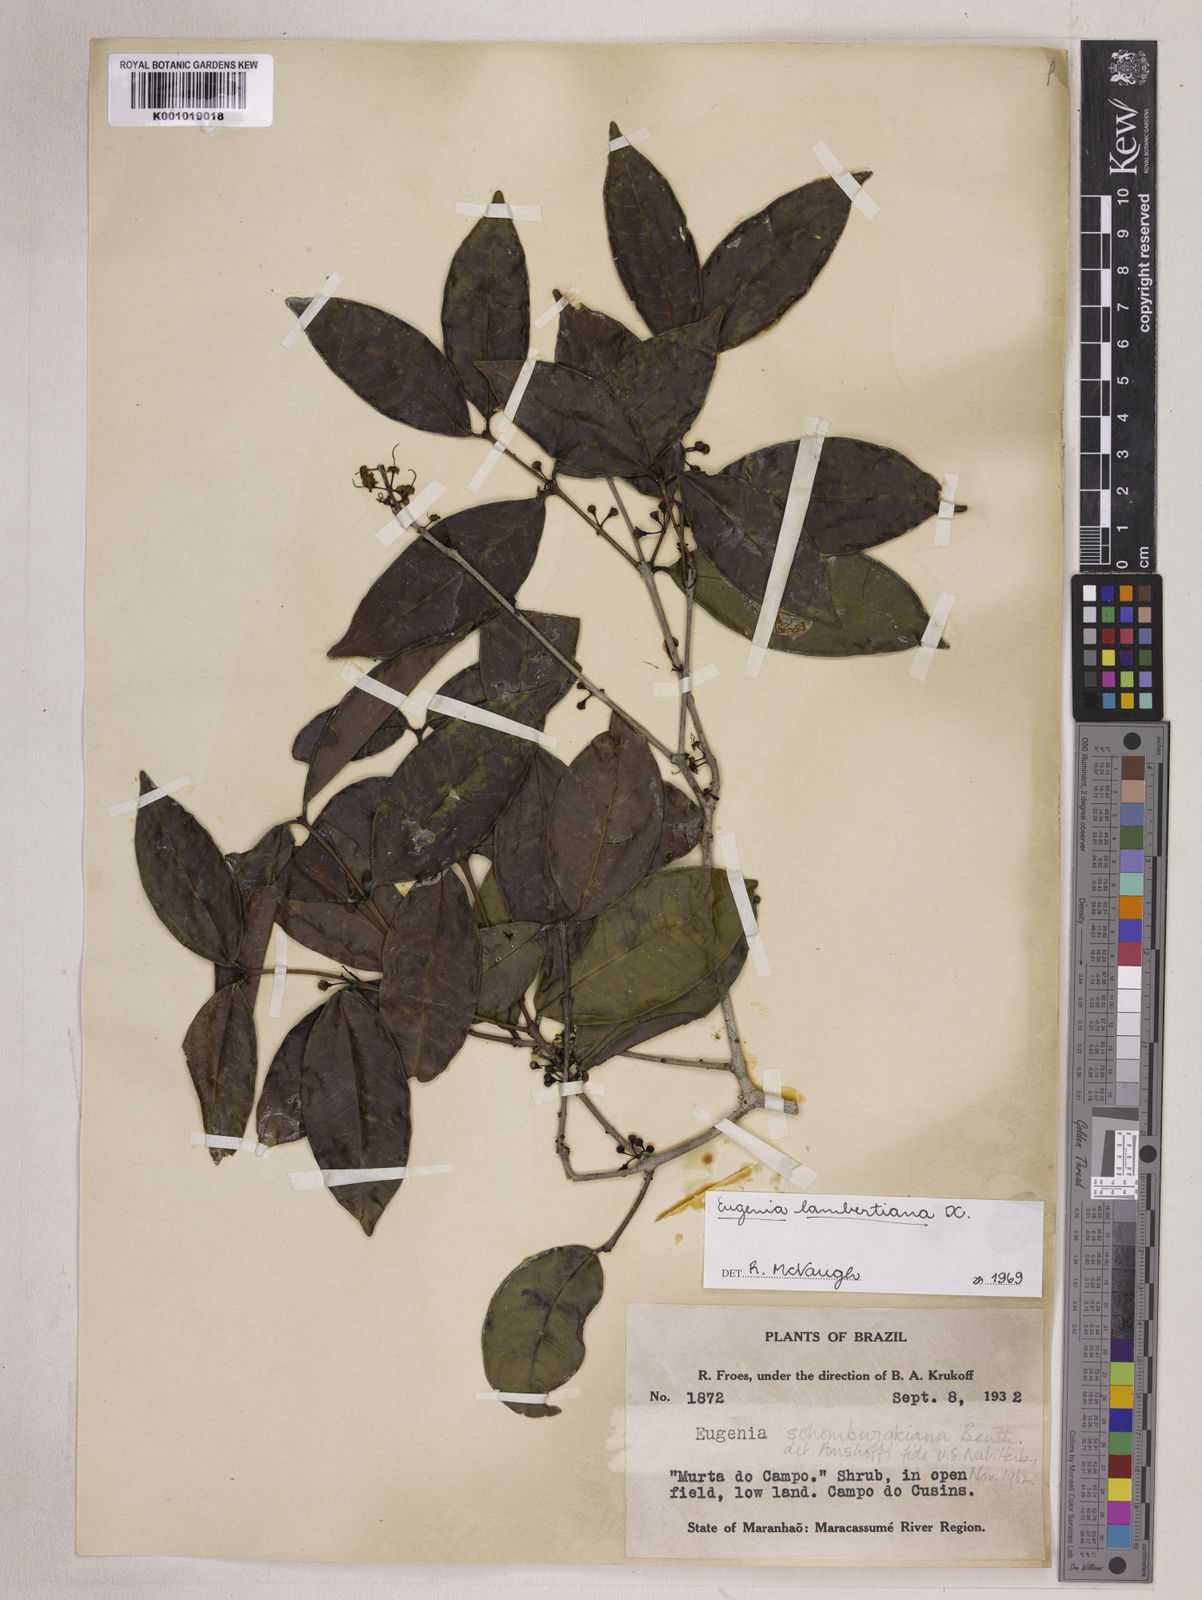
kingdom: Plantae
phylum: Tracheophyta
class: Magnoliopsida
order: Myrtales
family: Myrtaceae
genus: Eugenia
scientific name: Eugenia lambertiana
